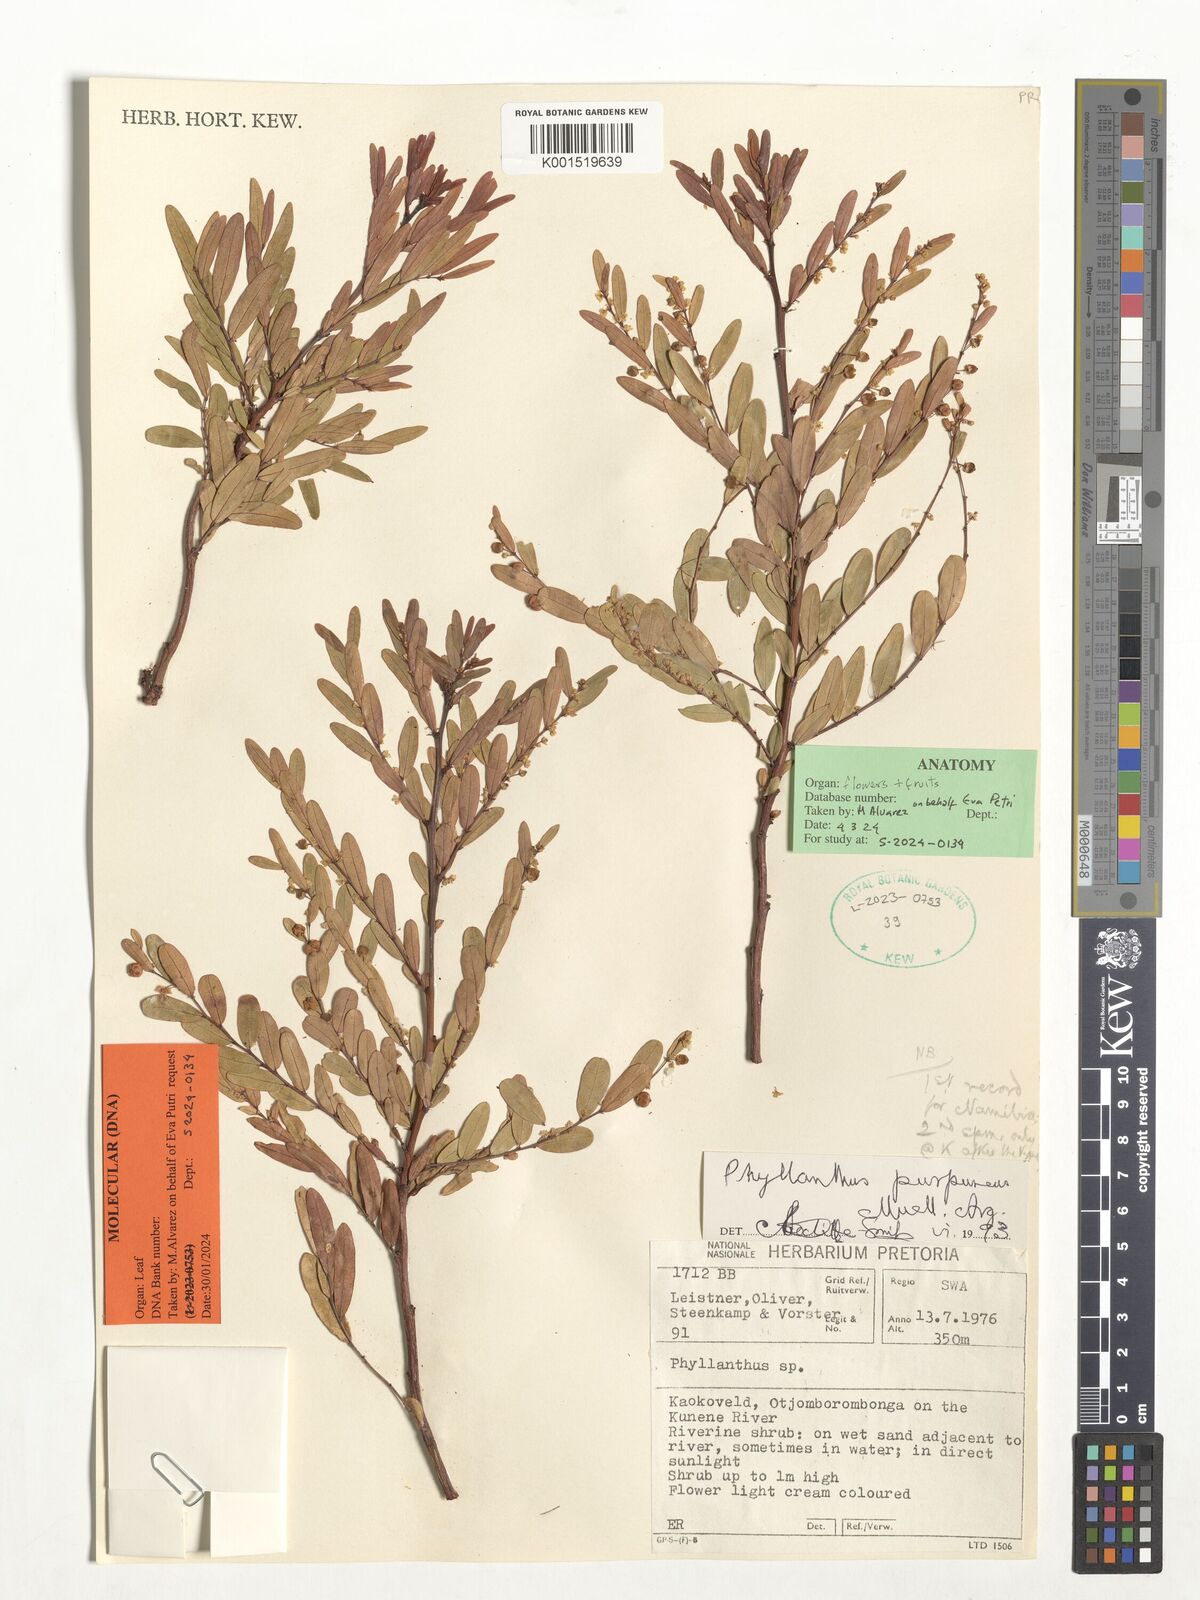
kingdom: Plantae
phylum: Tracheophyta
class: Magnoliopsida
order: Malpighiales
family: Phyllanthaceae
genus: Phyllanthus
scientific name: Phyllanthus purpureus
